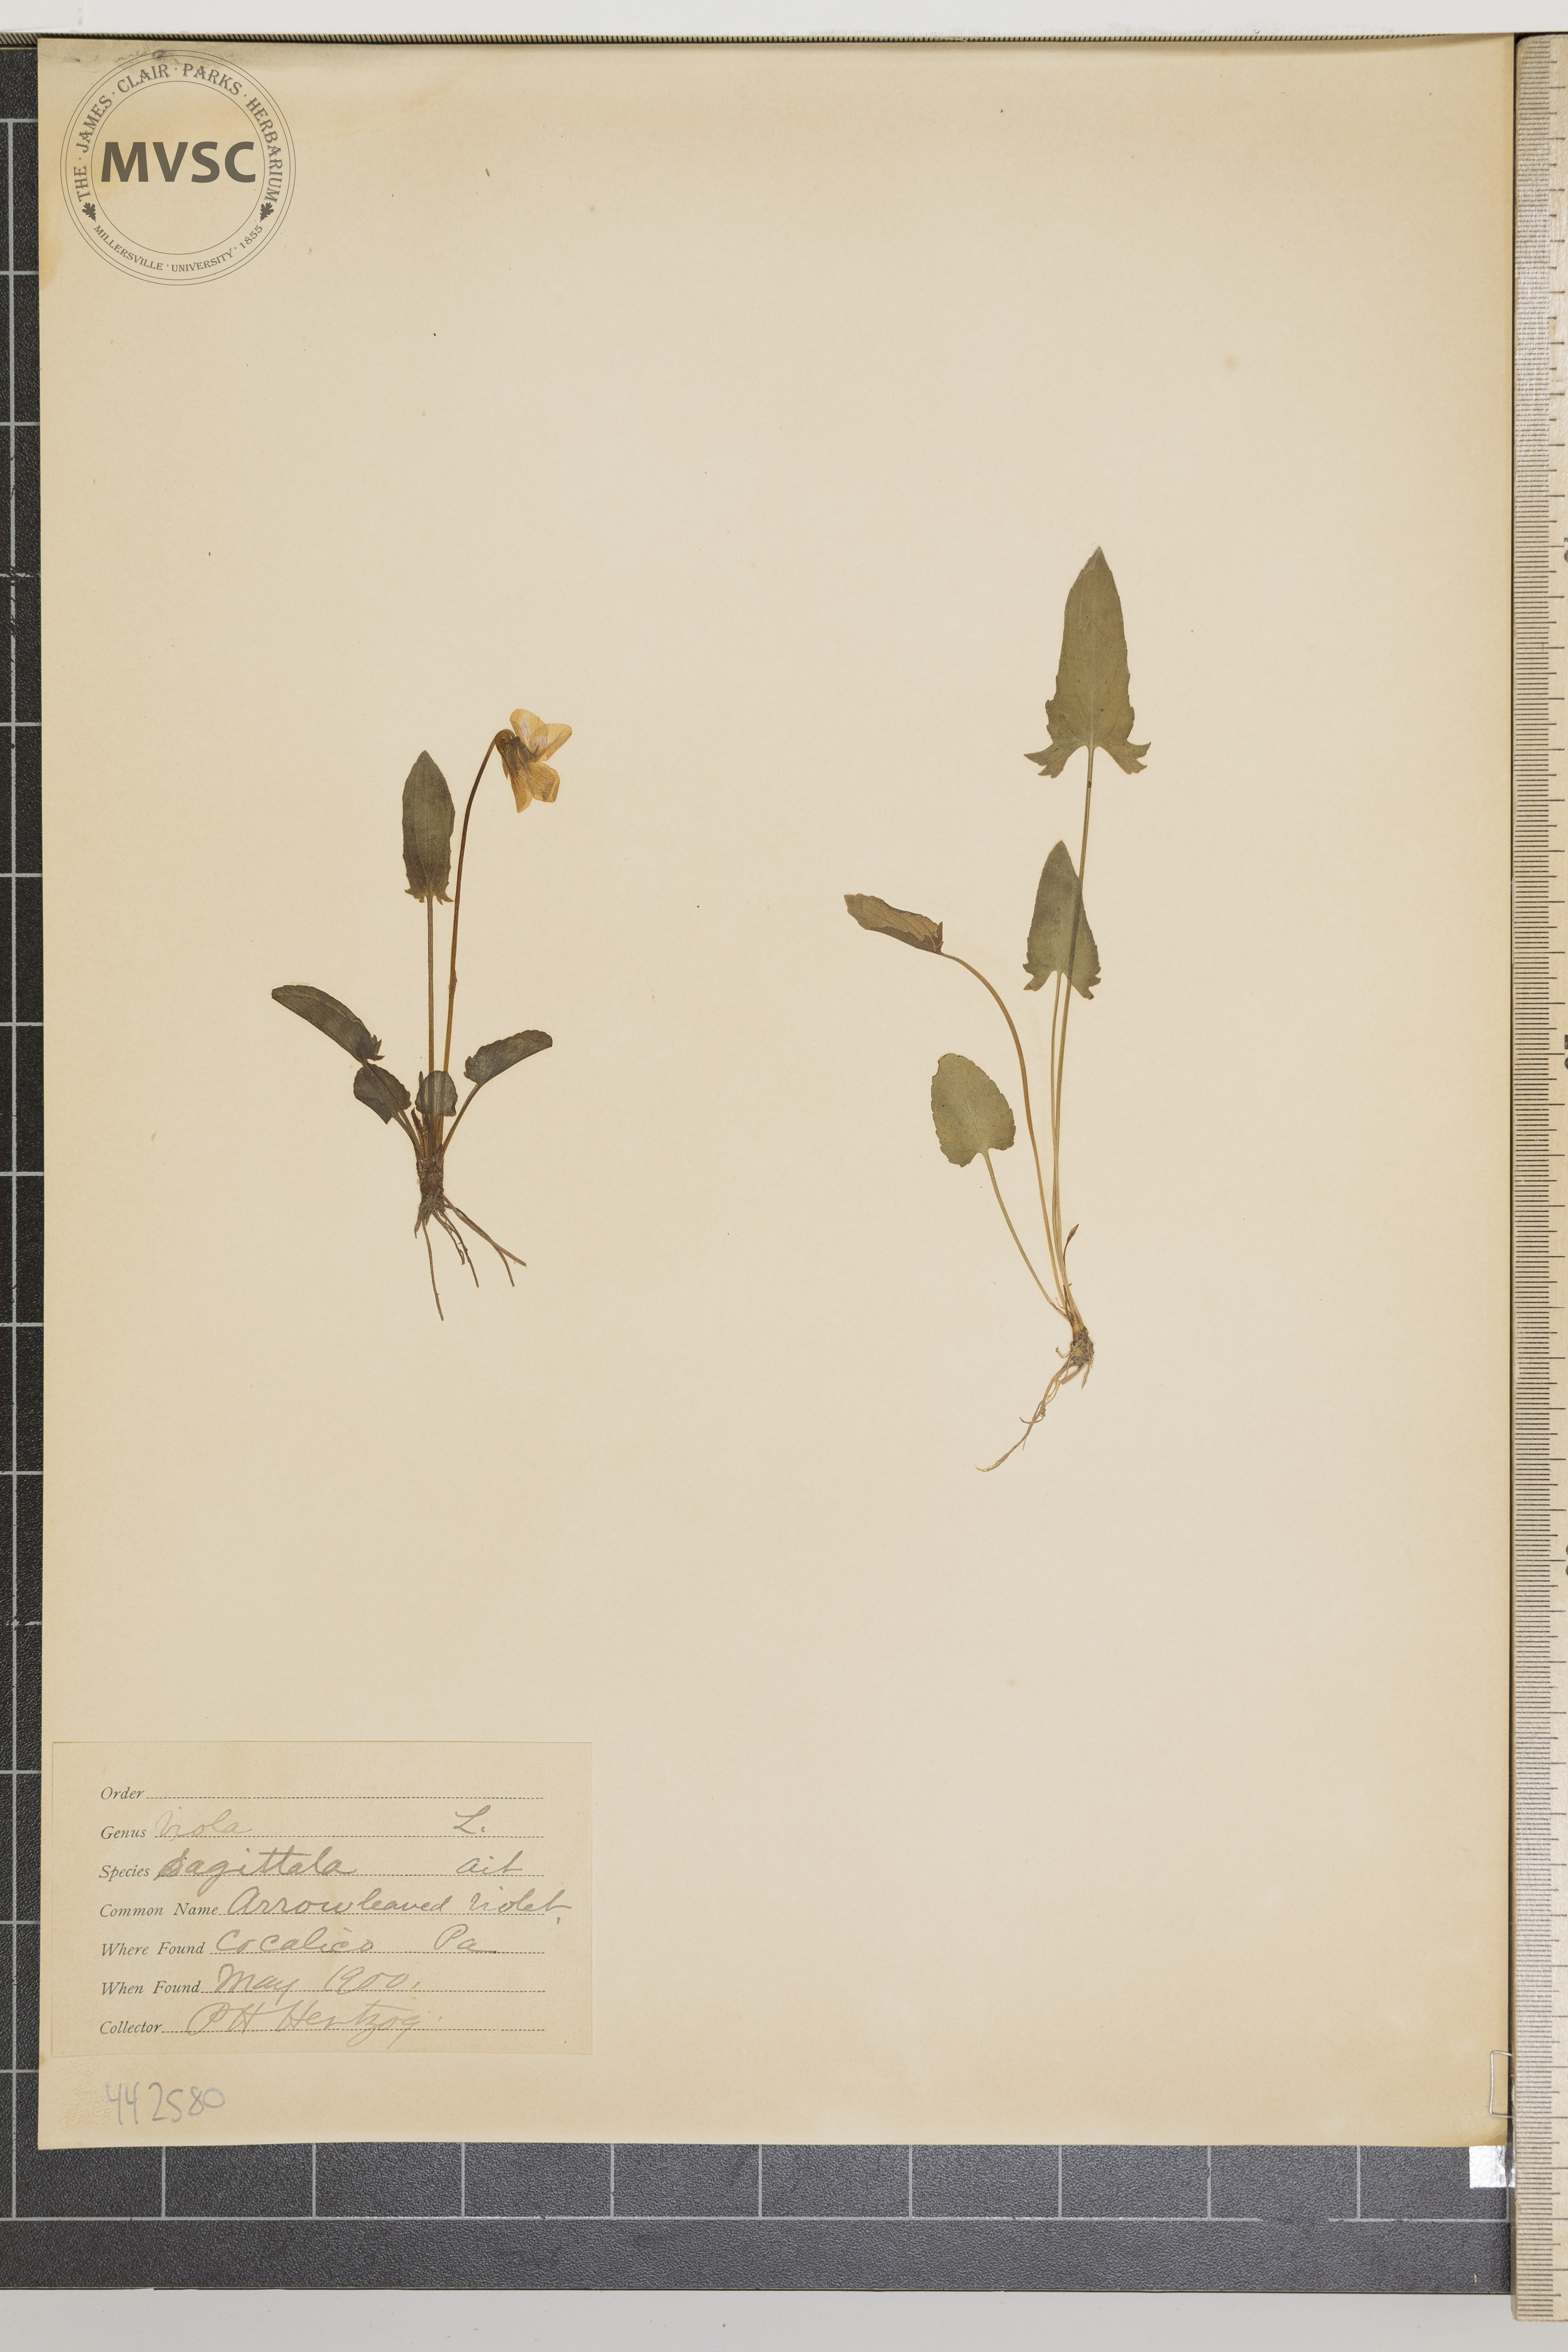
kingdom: Plantae
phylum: Tracheophyta
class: Magnoliopsida
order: Malpighiales
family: Violaceae
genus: Viola
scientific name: Viola sagittata
